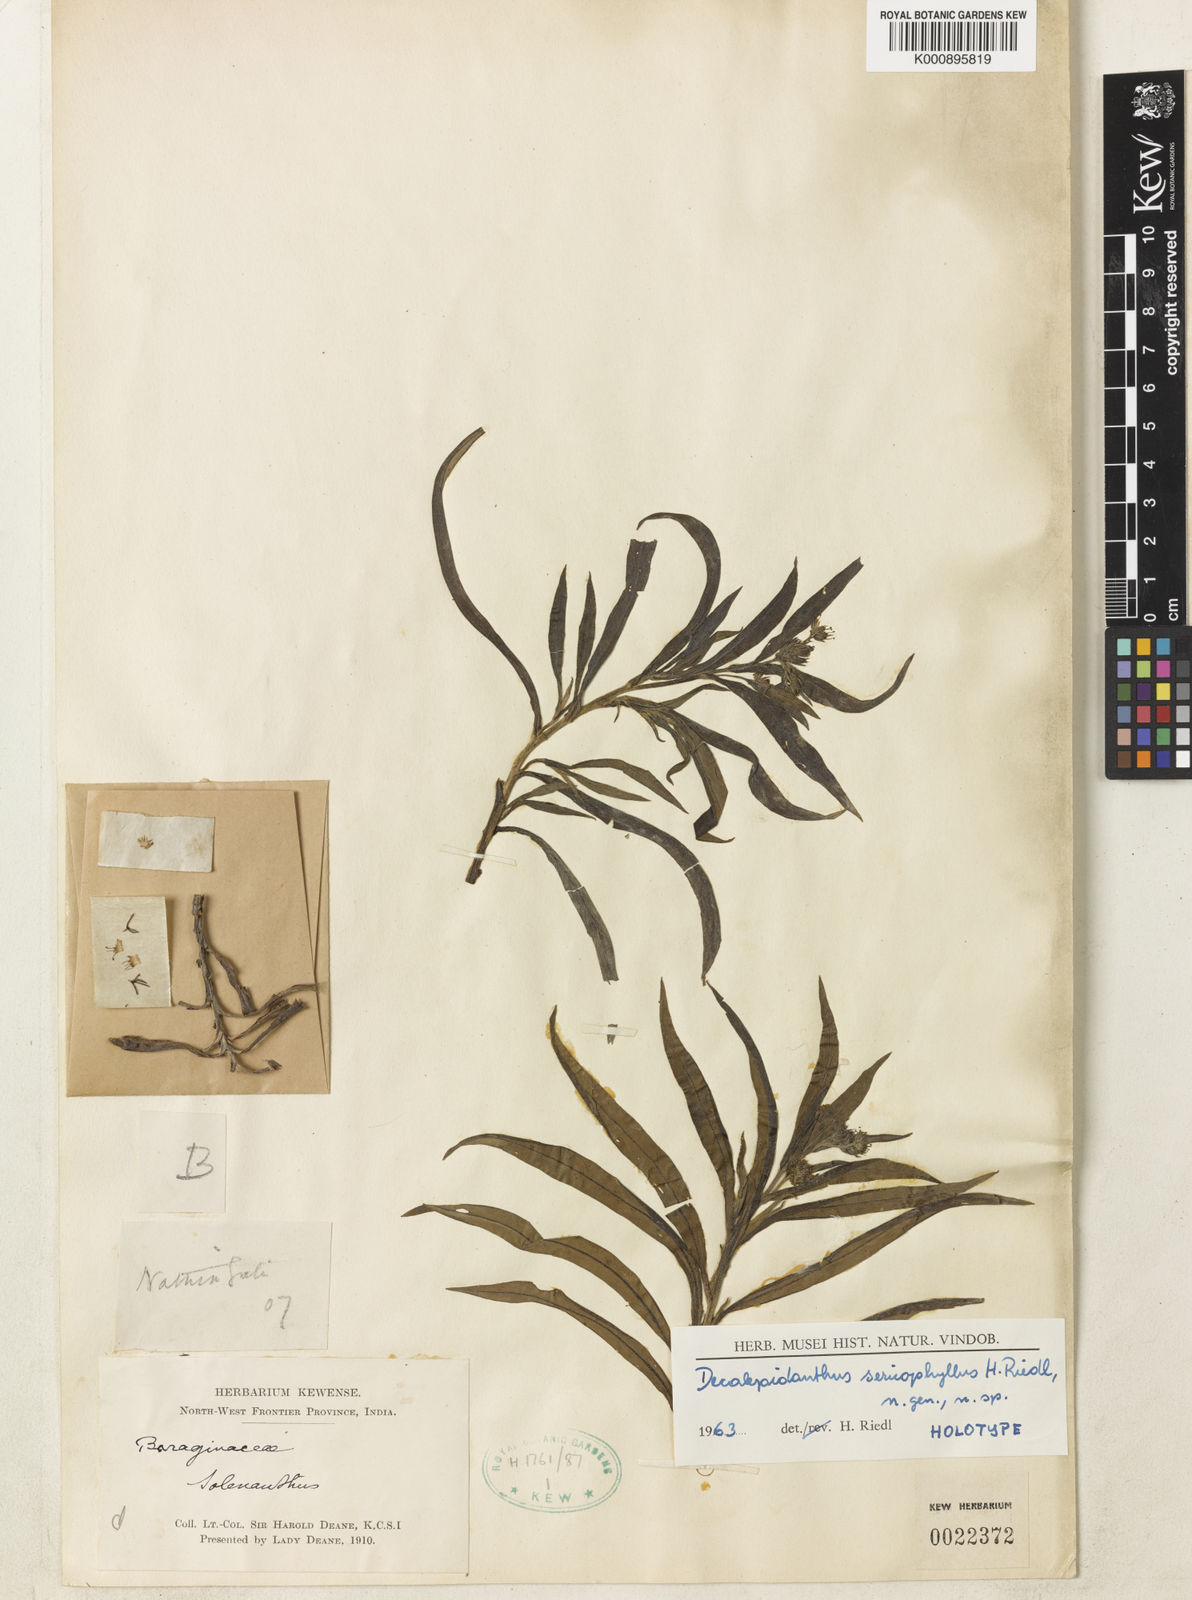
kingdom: Plantae
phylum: Tracheophyta
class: Magnoliopsida
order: Boraginales
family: Boraginaceae
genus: Decalepidanthus
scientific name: Decalepidanthus parviflorus
